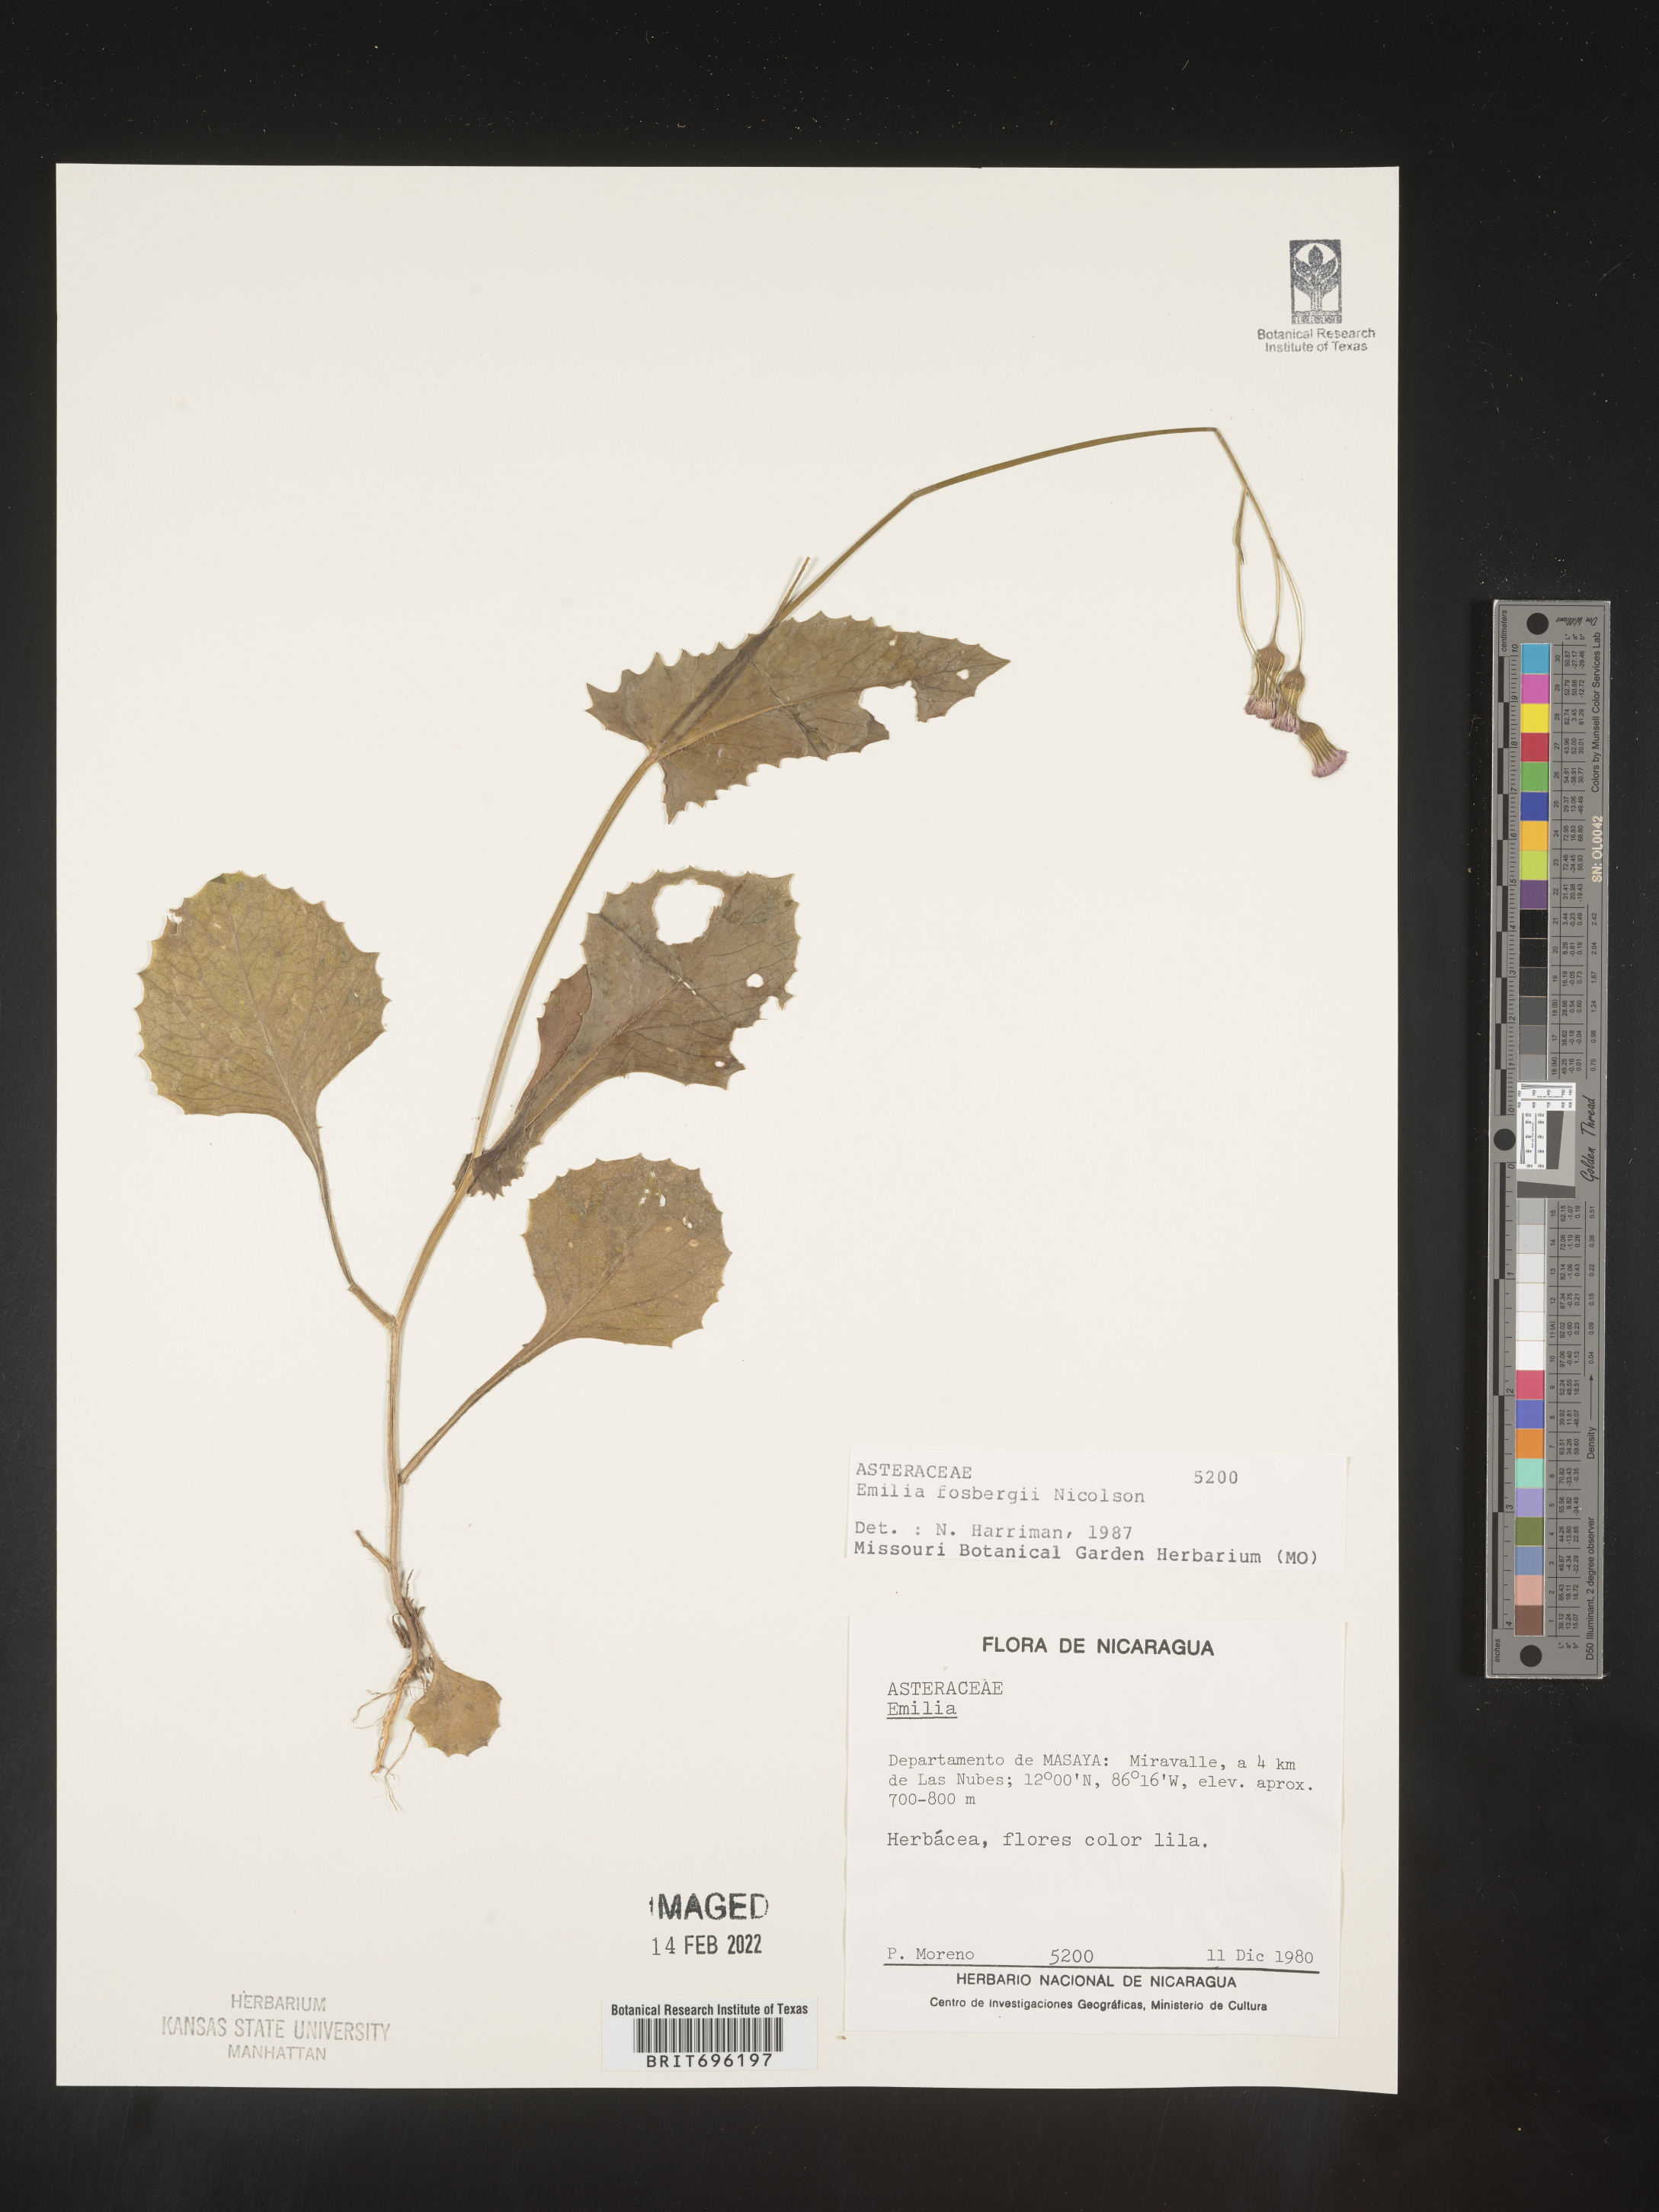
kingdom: Plantae
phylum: Tracheophyta
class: Magnoliopsida
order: Asterales
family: Asteraceae
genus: Emilia
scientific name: Emilia
